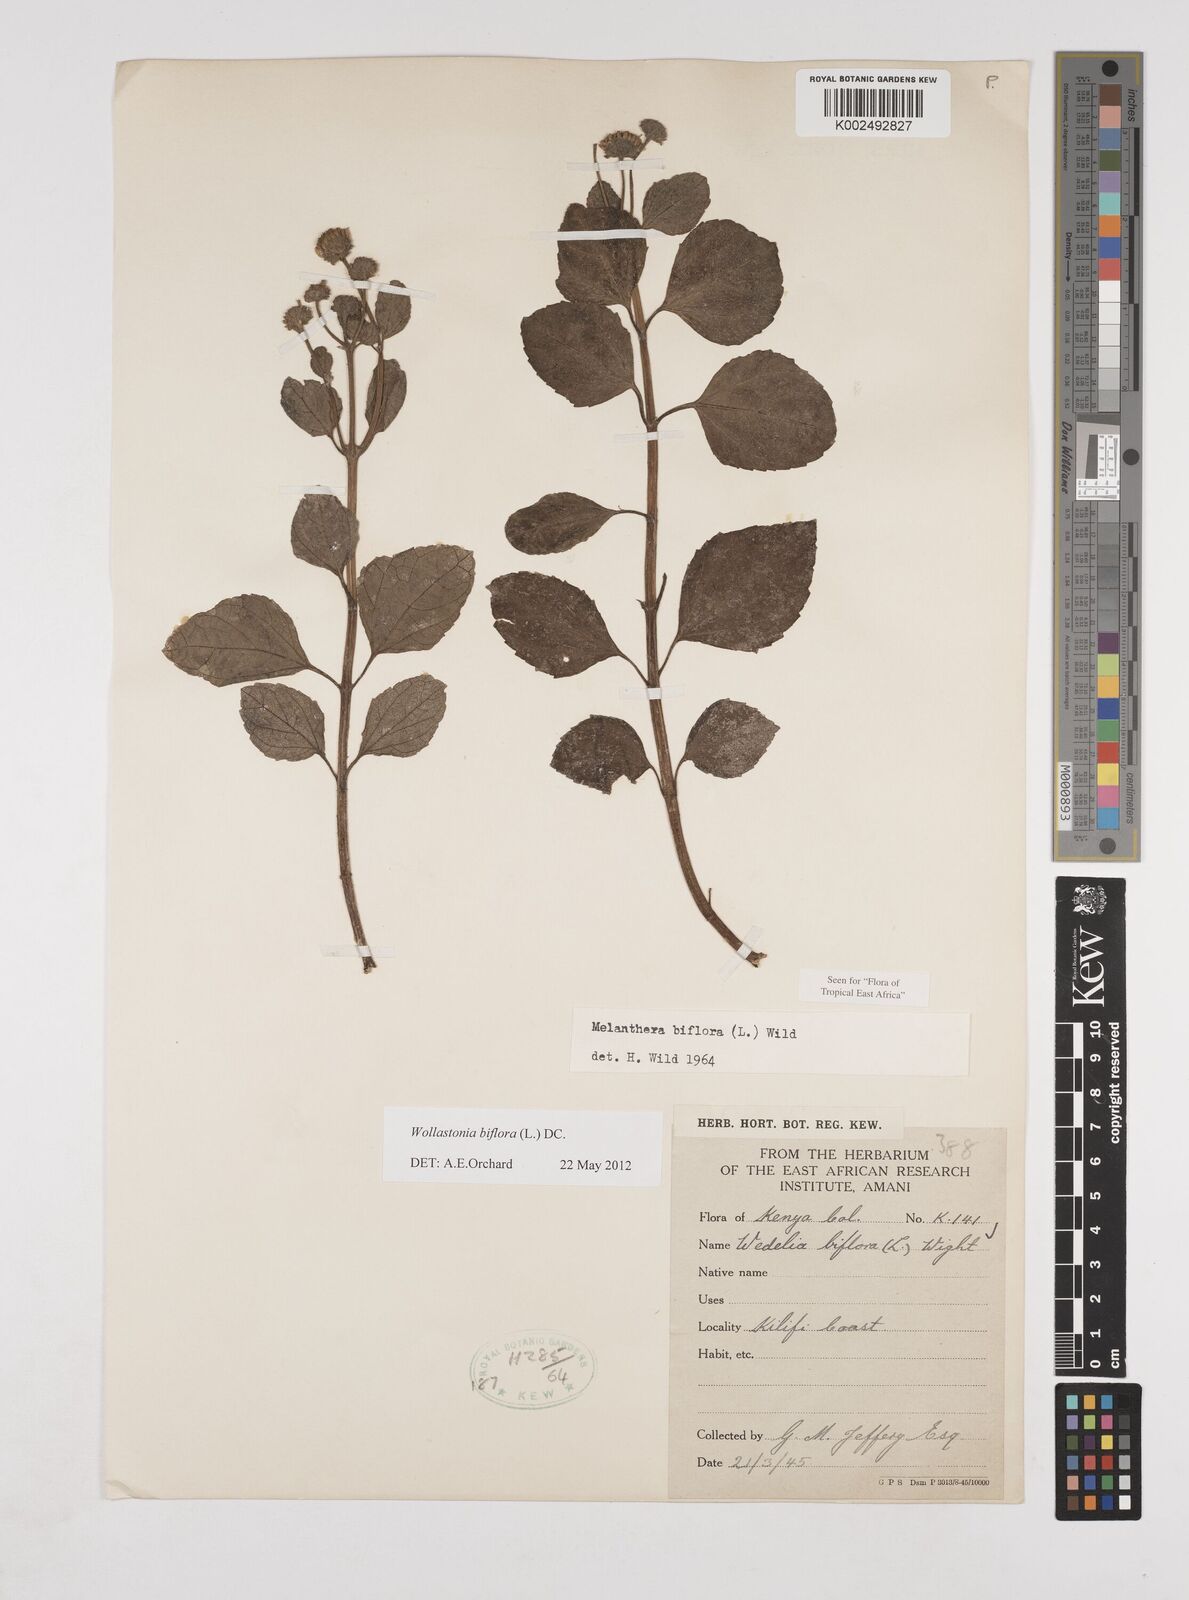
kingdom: Plantae
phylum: Tracheophyta
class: Magnoliopsida
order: Asterales
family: Asteraceae
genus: Wollastonia
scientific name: Wollastonia biflora
